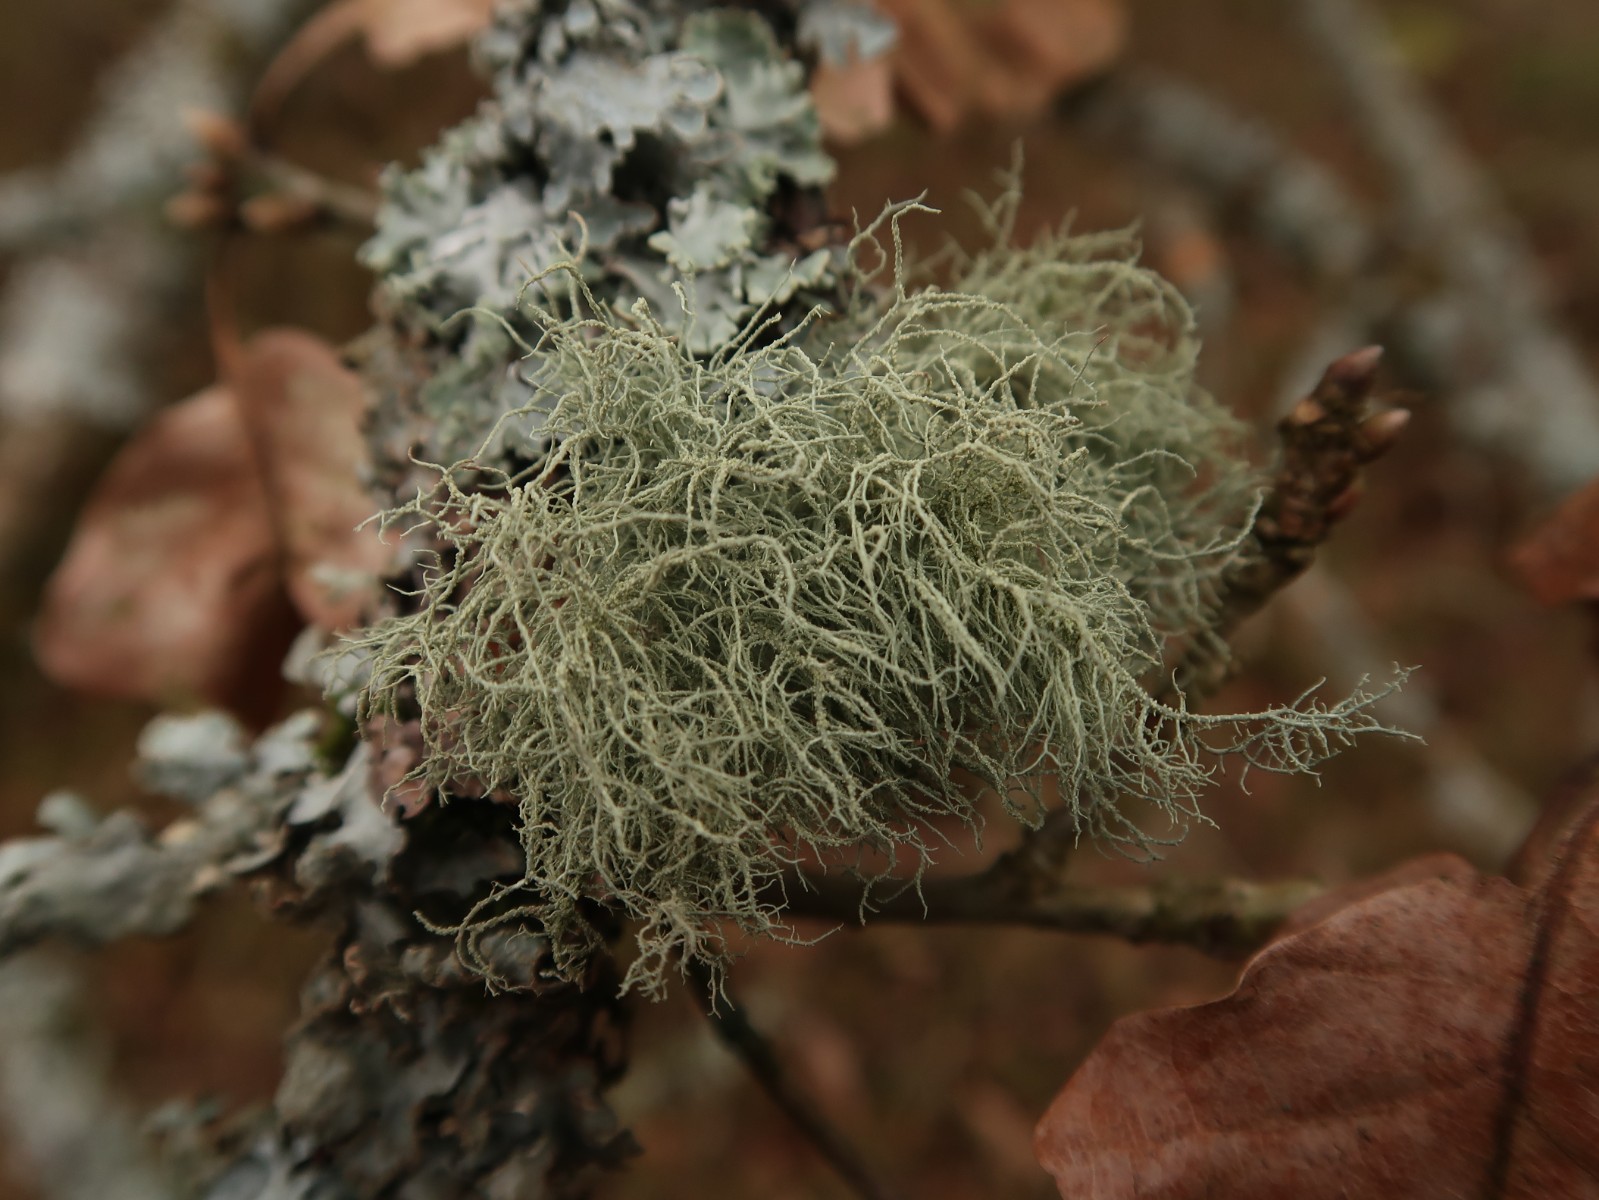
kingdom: Fungi
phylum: Ascomycota
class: Lecanoromycetes
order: Lecanorales
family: Parmeliaceae
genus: Usnea
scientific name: Usnea subfloridana
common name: busket skæglav
